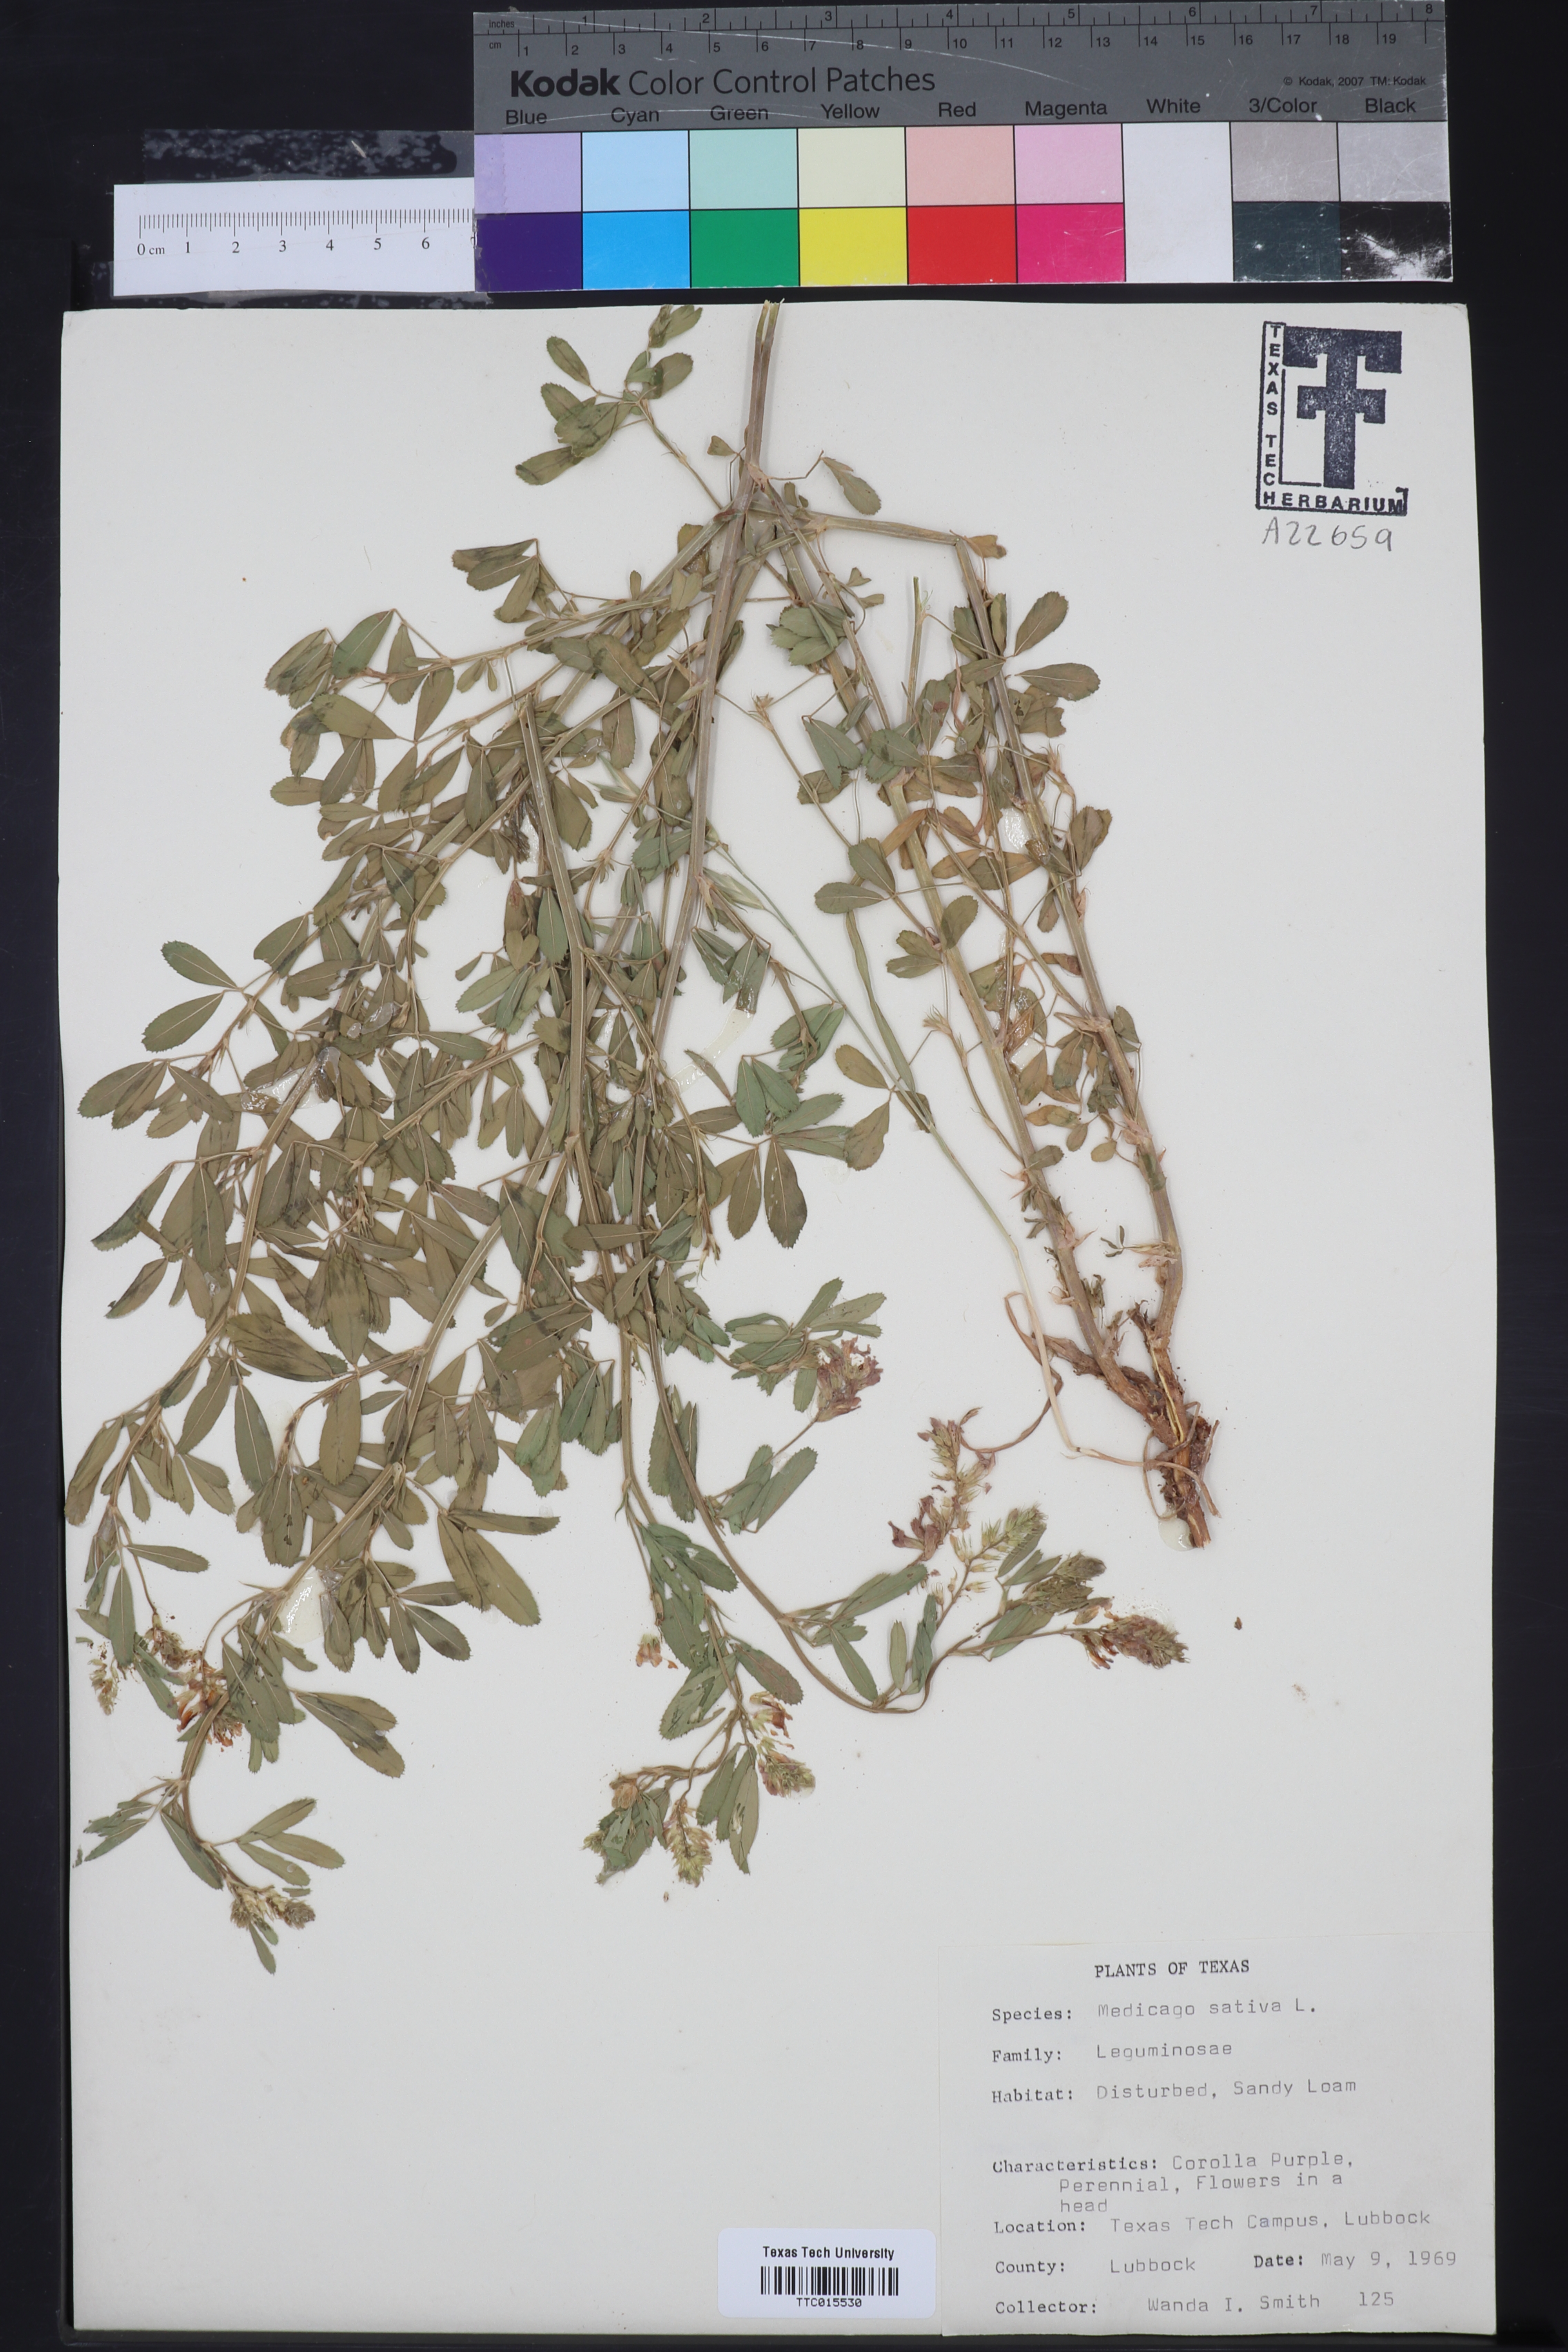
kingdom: Plantae
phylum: Tracheophyta
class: Magnoliopsida
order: Fabales
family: Fabaceae
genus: Medicago
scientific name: Medicago sativa
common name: Alfalfa
